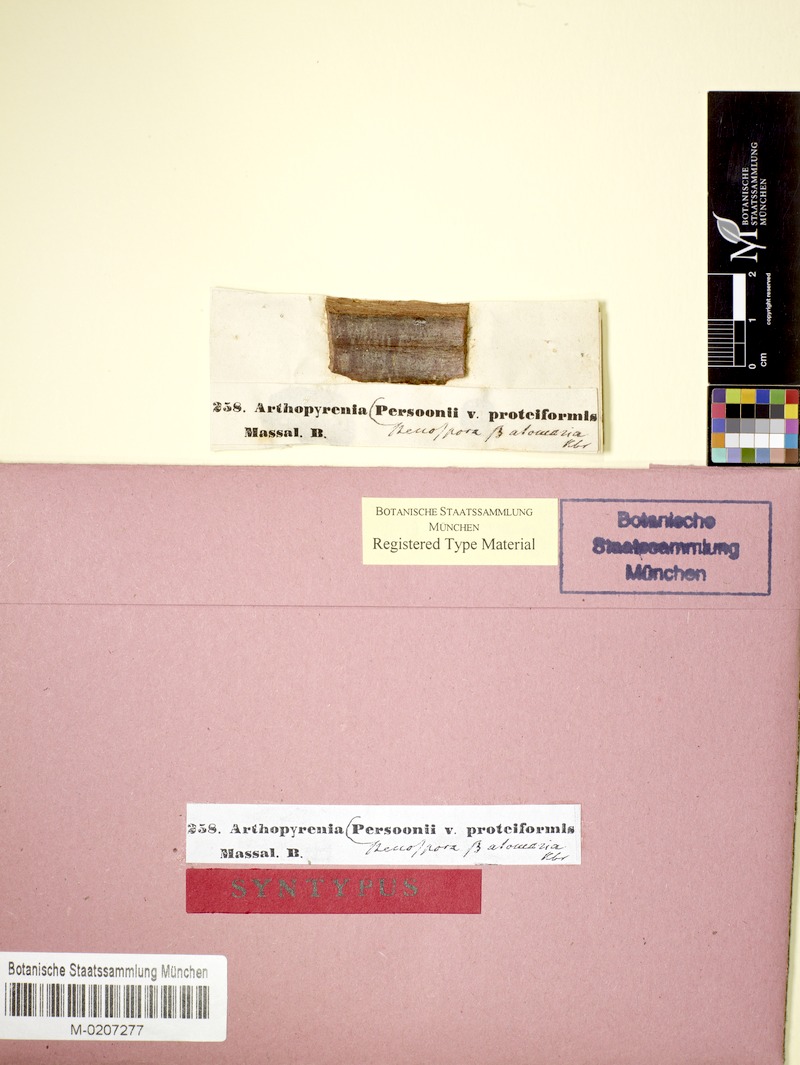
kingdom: Fungi
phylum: Ascomycota
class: Dothideomycetes
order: Pleosporales
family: Naetrocymbaceae
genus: Naetrocymbe
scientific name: Naetrocymbe punctiformis
